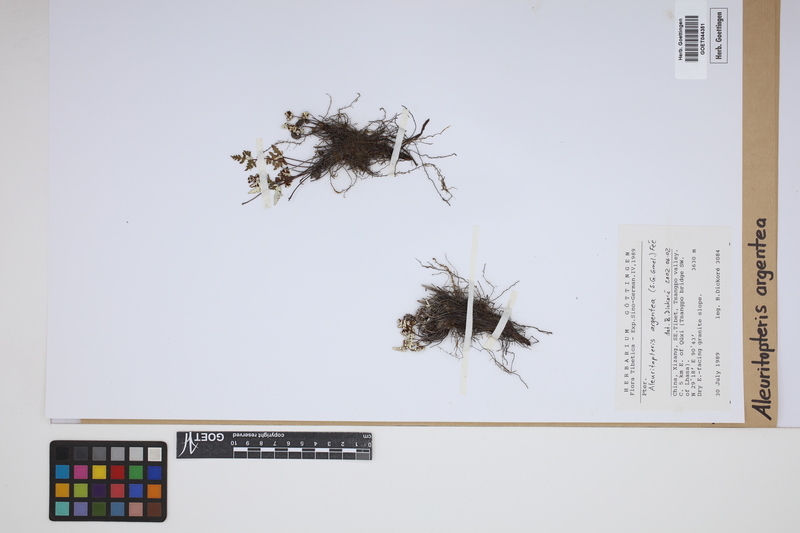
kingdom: Plantae
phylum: Tracheophyta
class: Polypodiopsida
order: Polypodiales
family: Pteridaceae
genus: Aleuritopteris
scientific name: Aleuritopteris argentea
